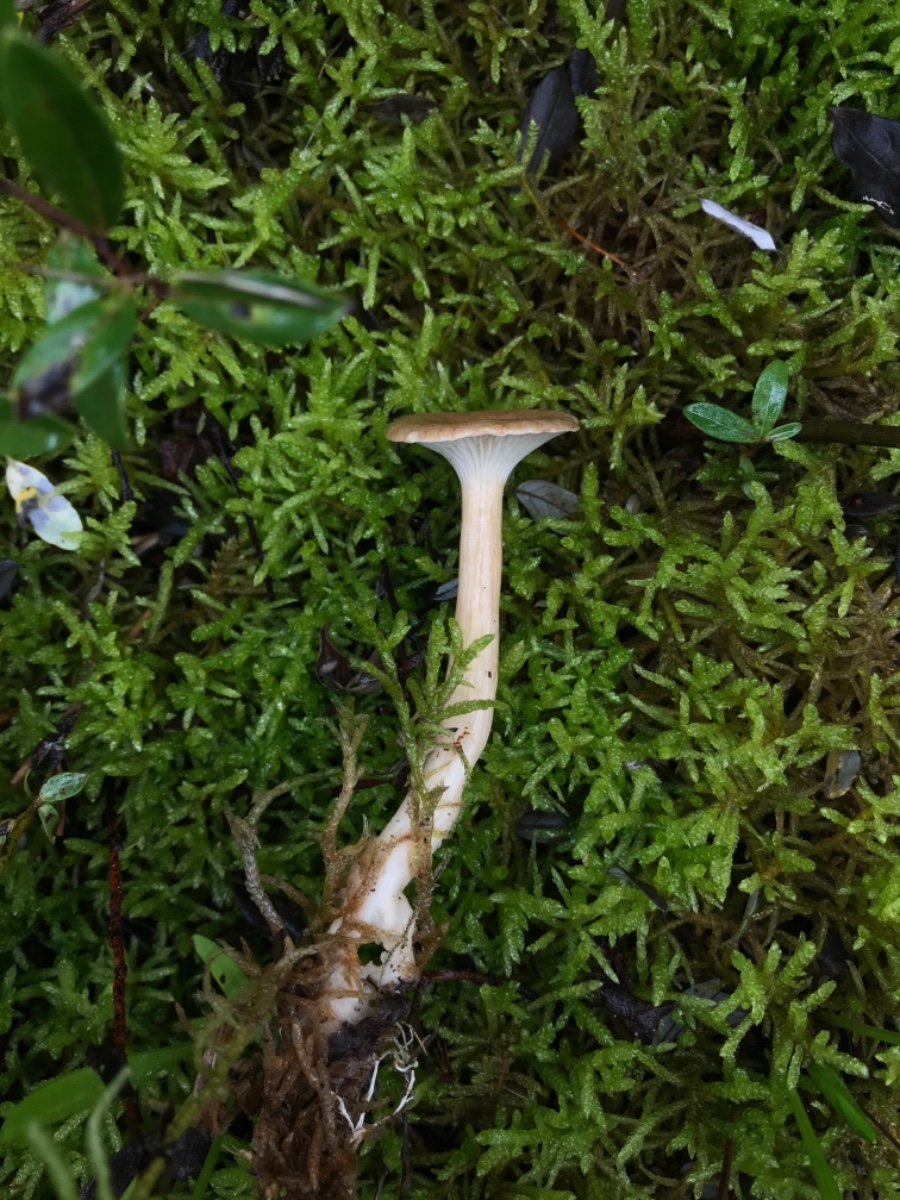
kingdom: Fungi
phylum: Basidiomycota
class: Agaricomycetes
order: Agaricales
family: Tricholomataceae
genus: Infundibulicybe
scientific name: Infundibulicybe
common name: tragthat
